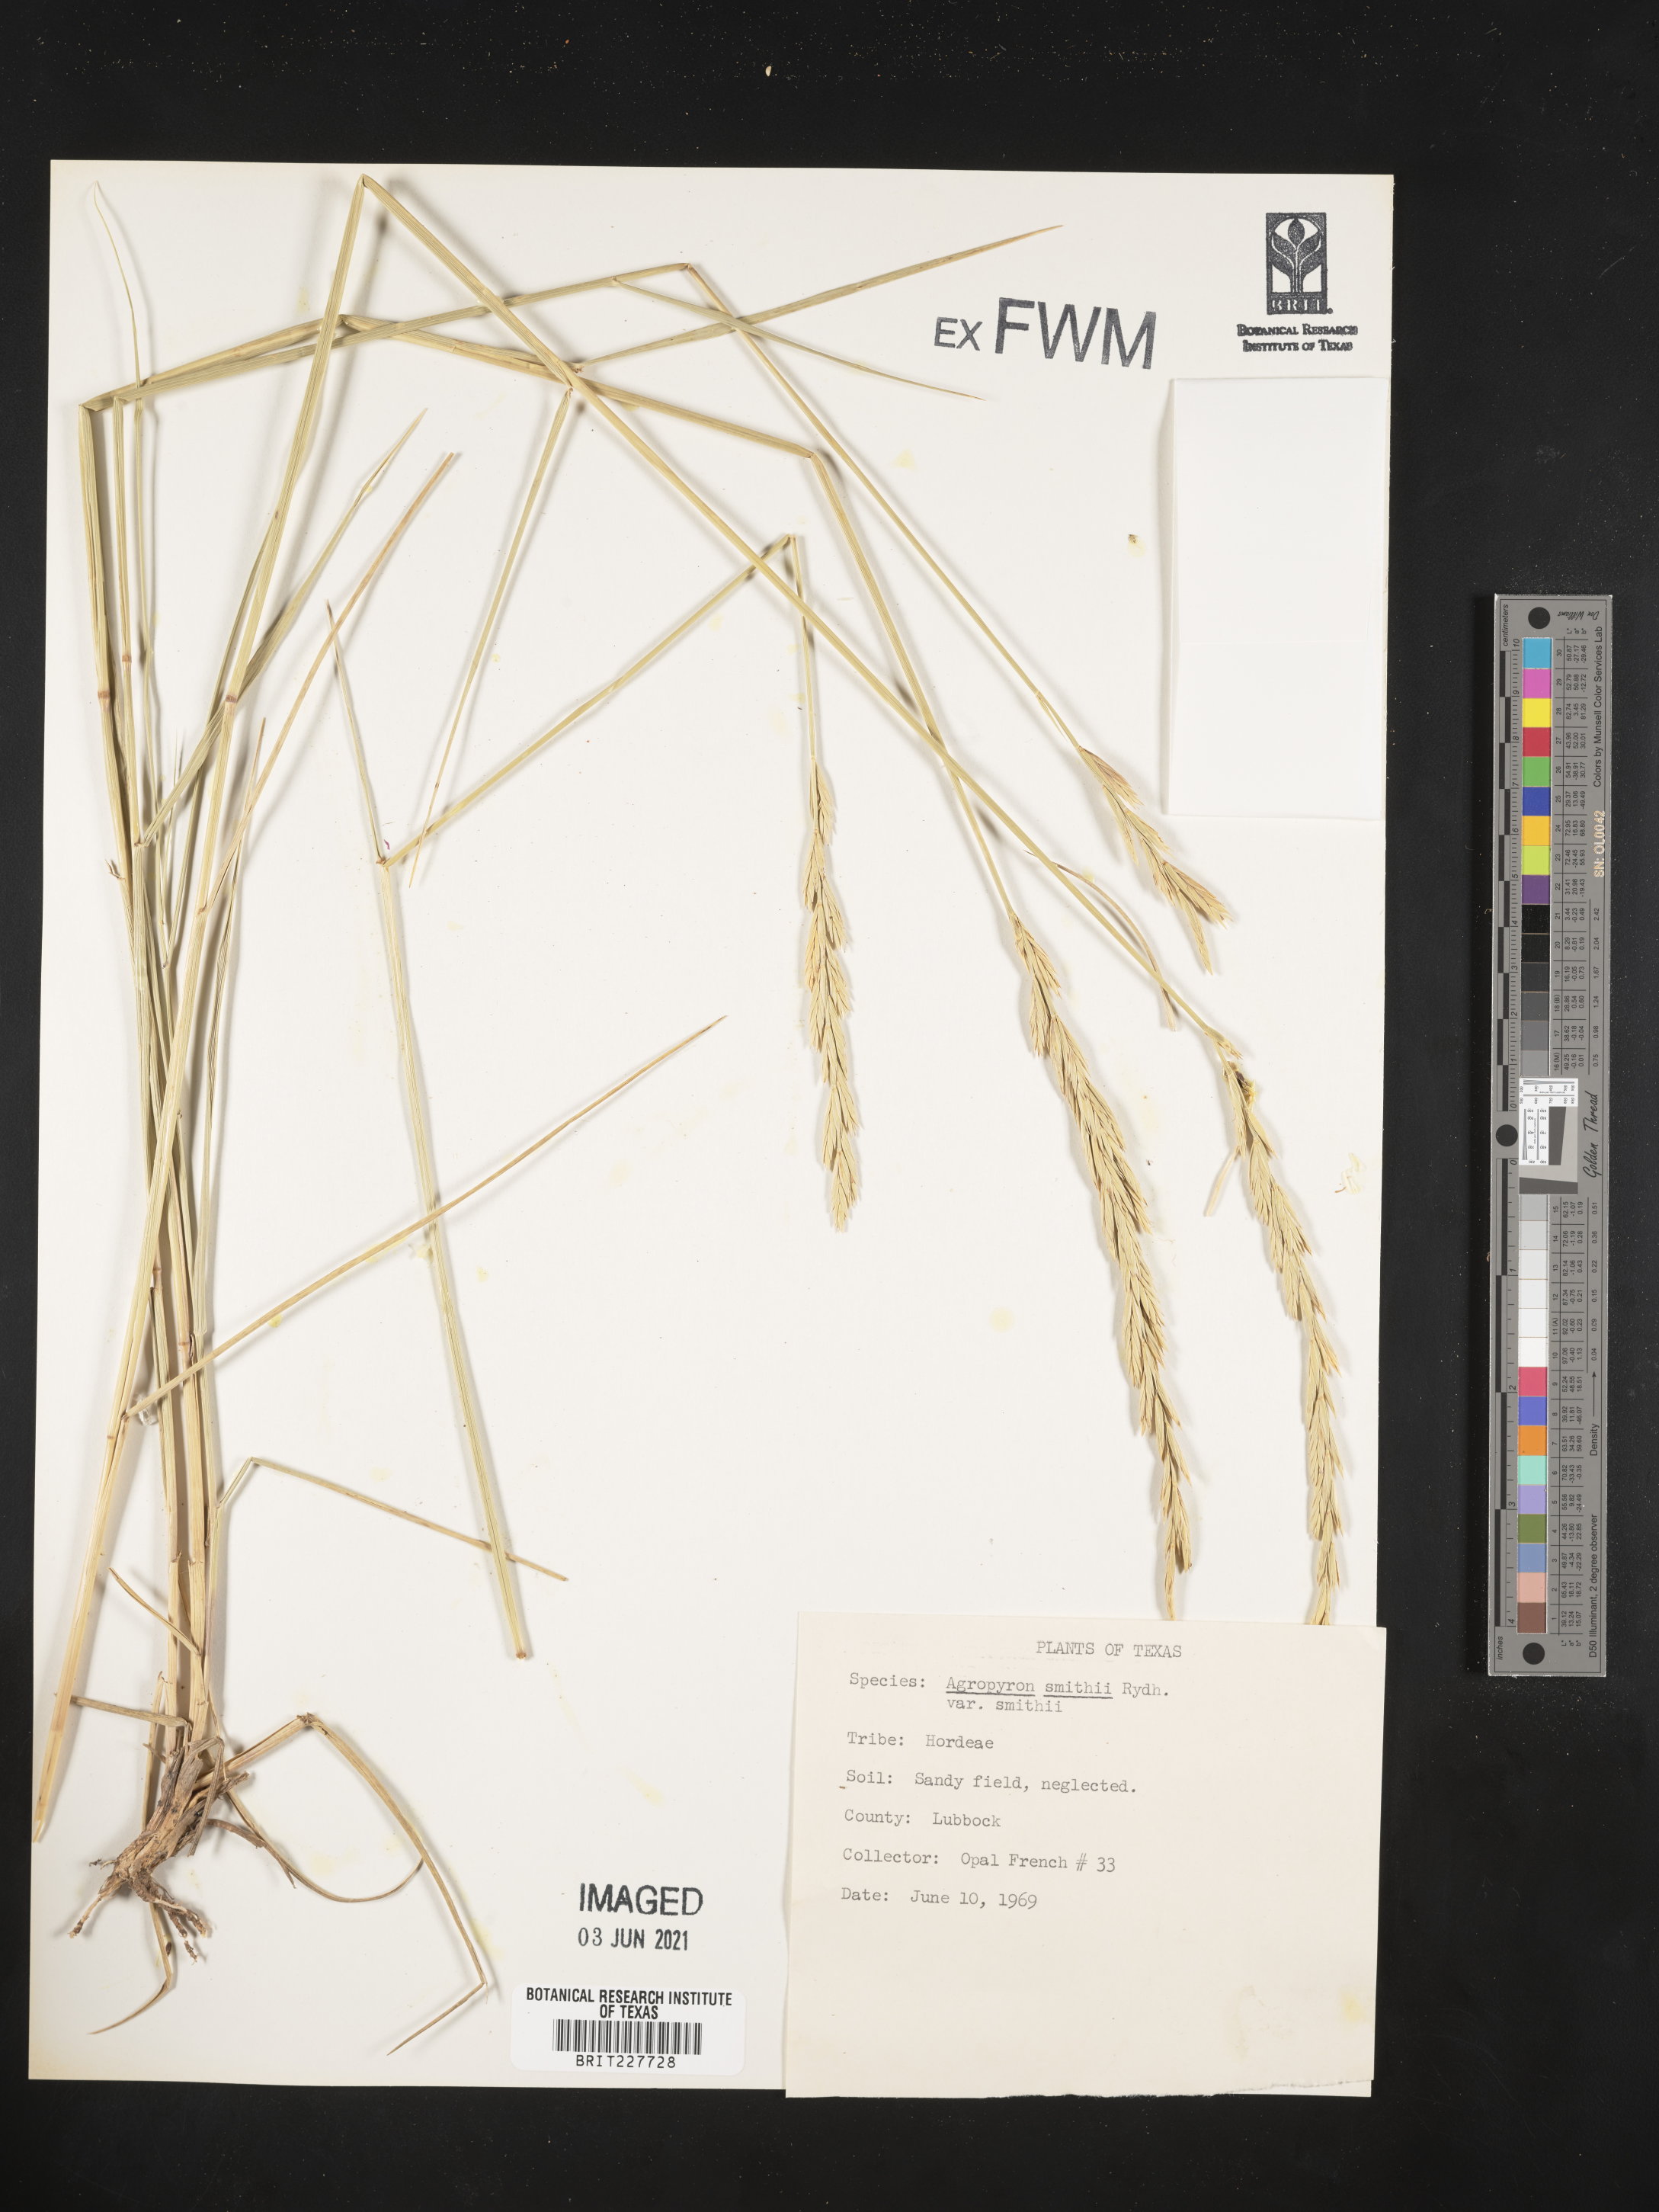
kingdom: Plantae
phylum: Tracheophyta
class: Liliopsida
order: Poales
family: Poaceae
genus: Elymus
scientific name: Elymus smithii
